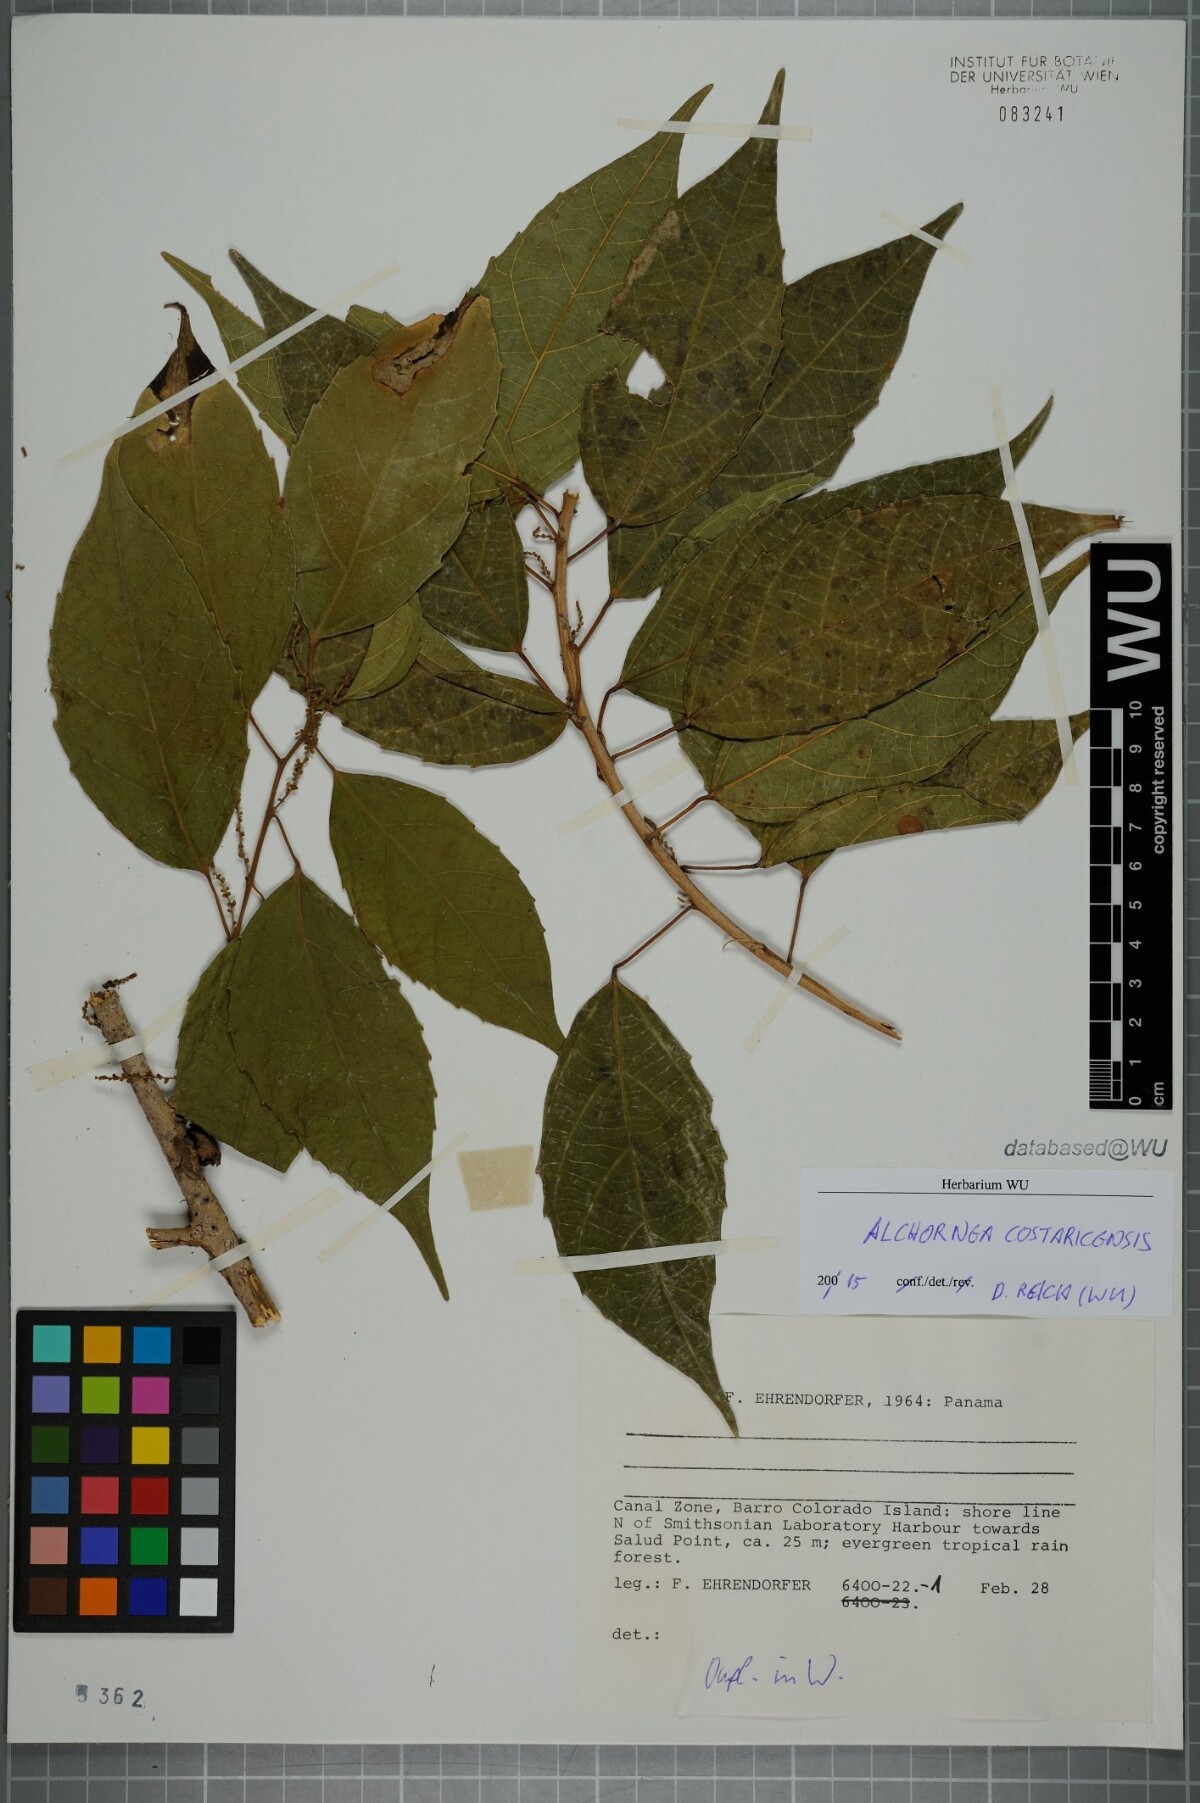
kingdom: Plantae
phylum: Tracheophyta
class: Magnoliopsida
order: Malpighiales
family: Euphorbiaceae
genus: Alchornea
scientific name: Alchornea costaricensis
